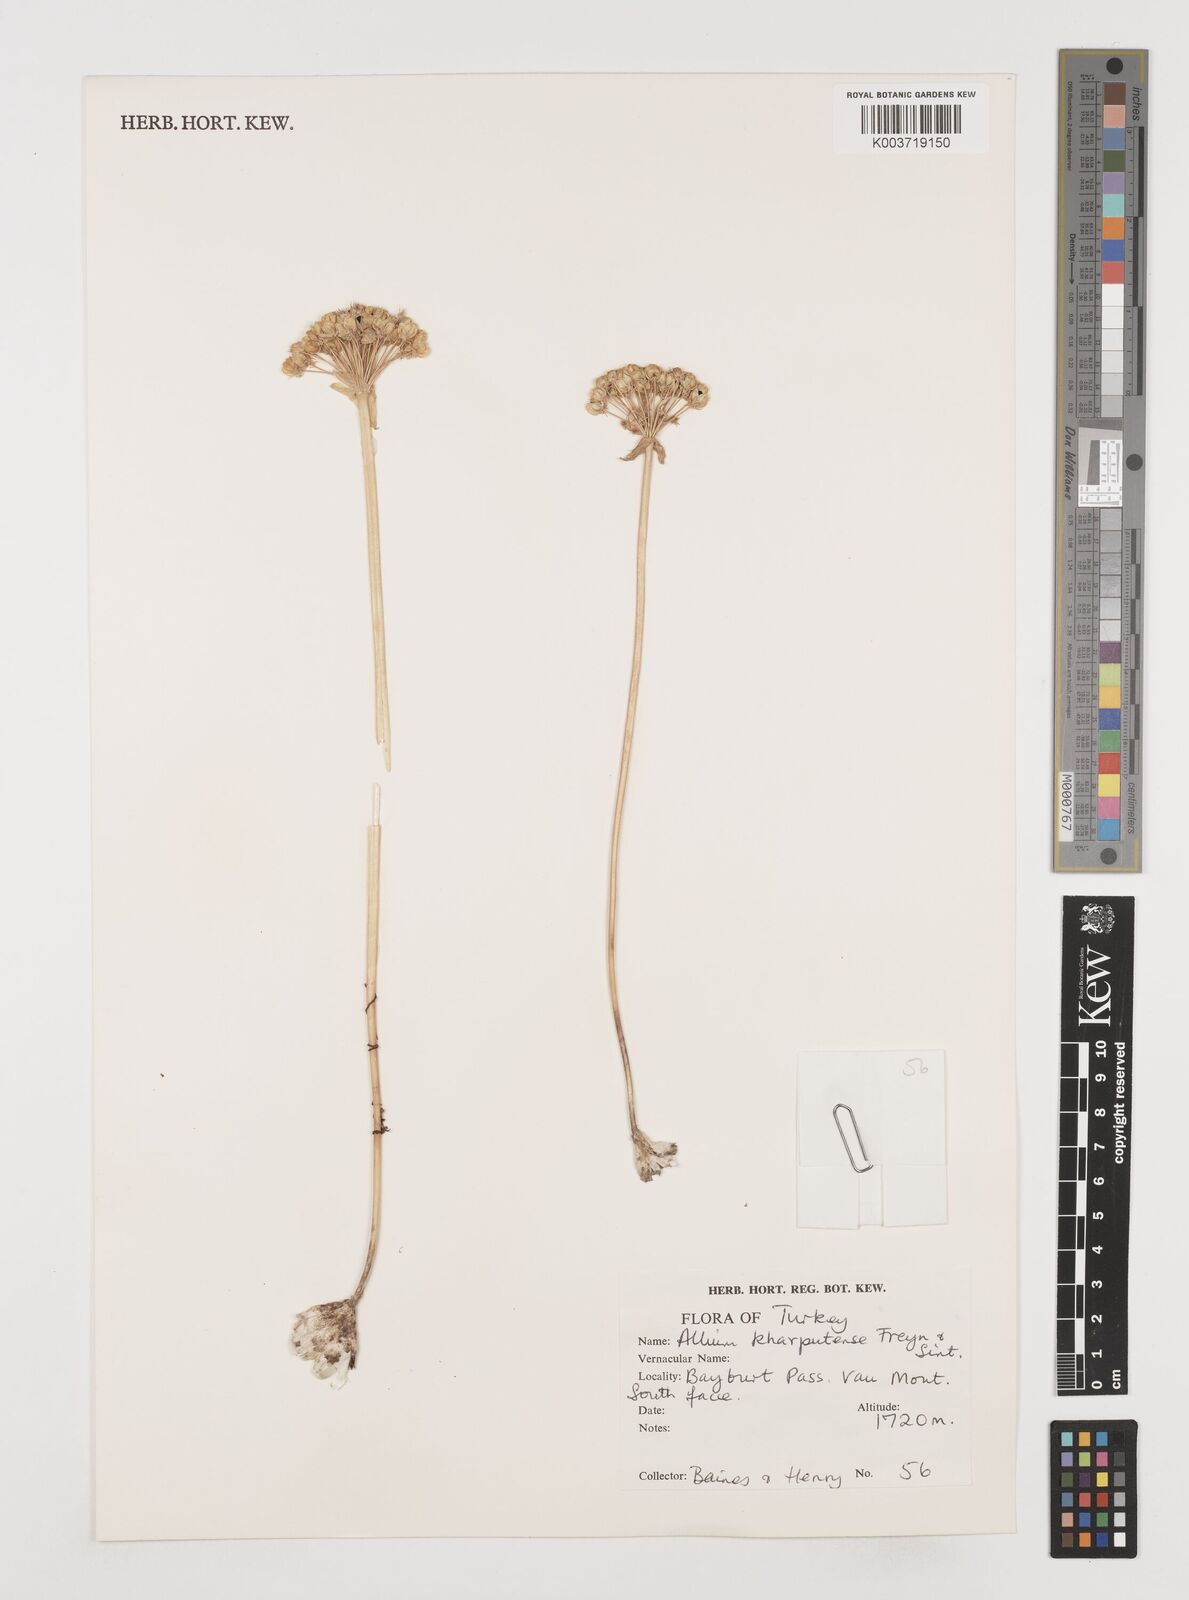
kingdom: Plantae
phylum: Tracheophyta
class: Liliopsida
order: Asparagales
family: Amaryllidaceae
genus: Allium
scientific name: Allium kharputense
